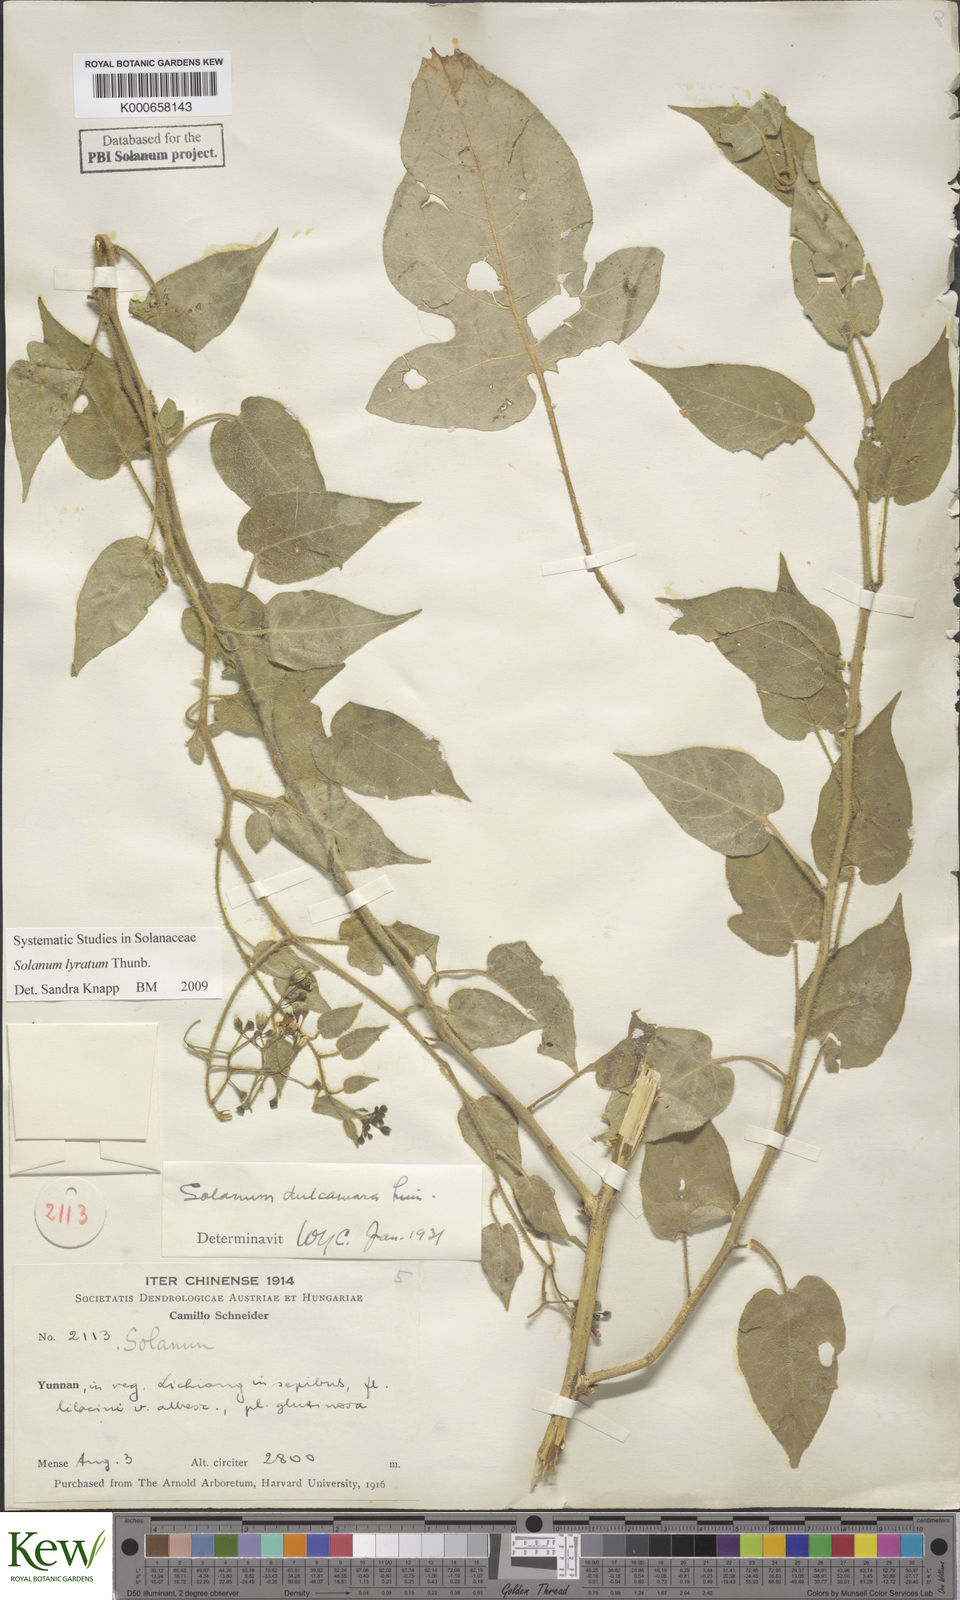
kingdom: Plantae
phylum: Tracheophyta
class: Magnoliopsida
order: Solanales
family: Solanaceae
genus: Solanum
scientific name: Solanum lyratum
